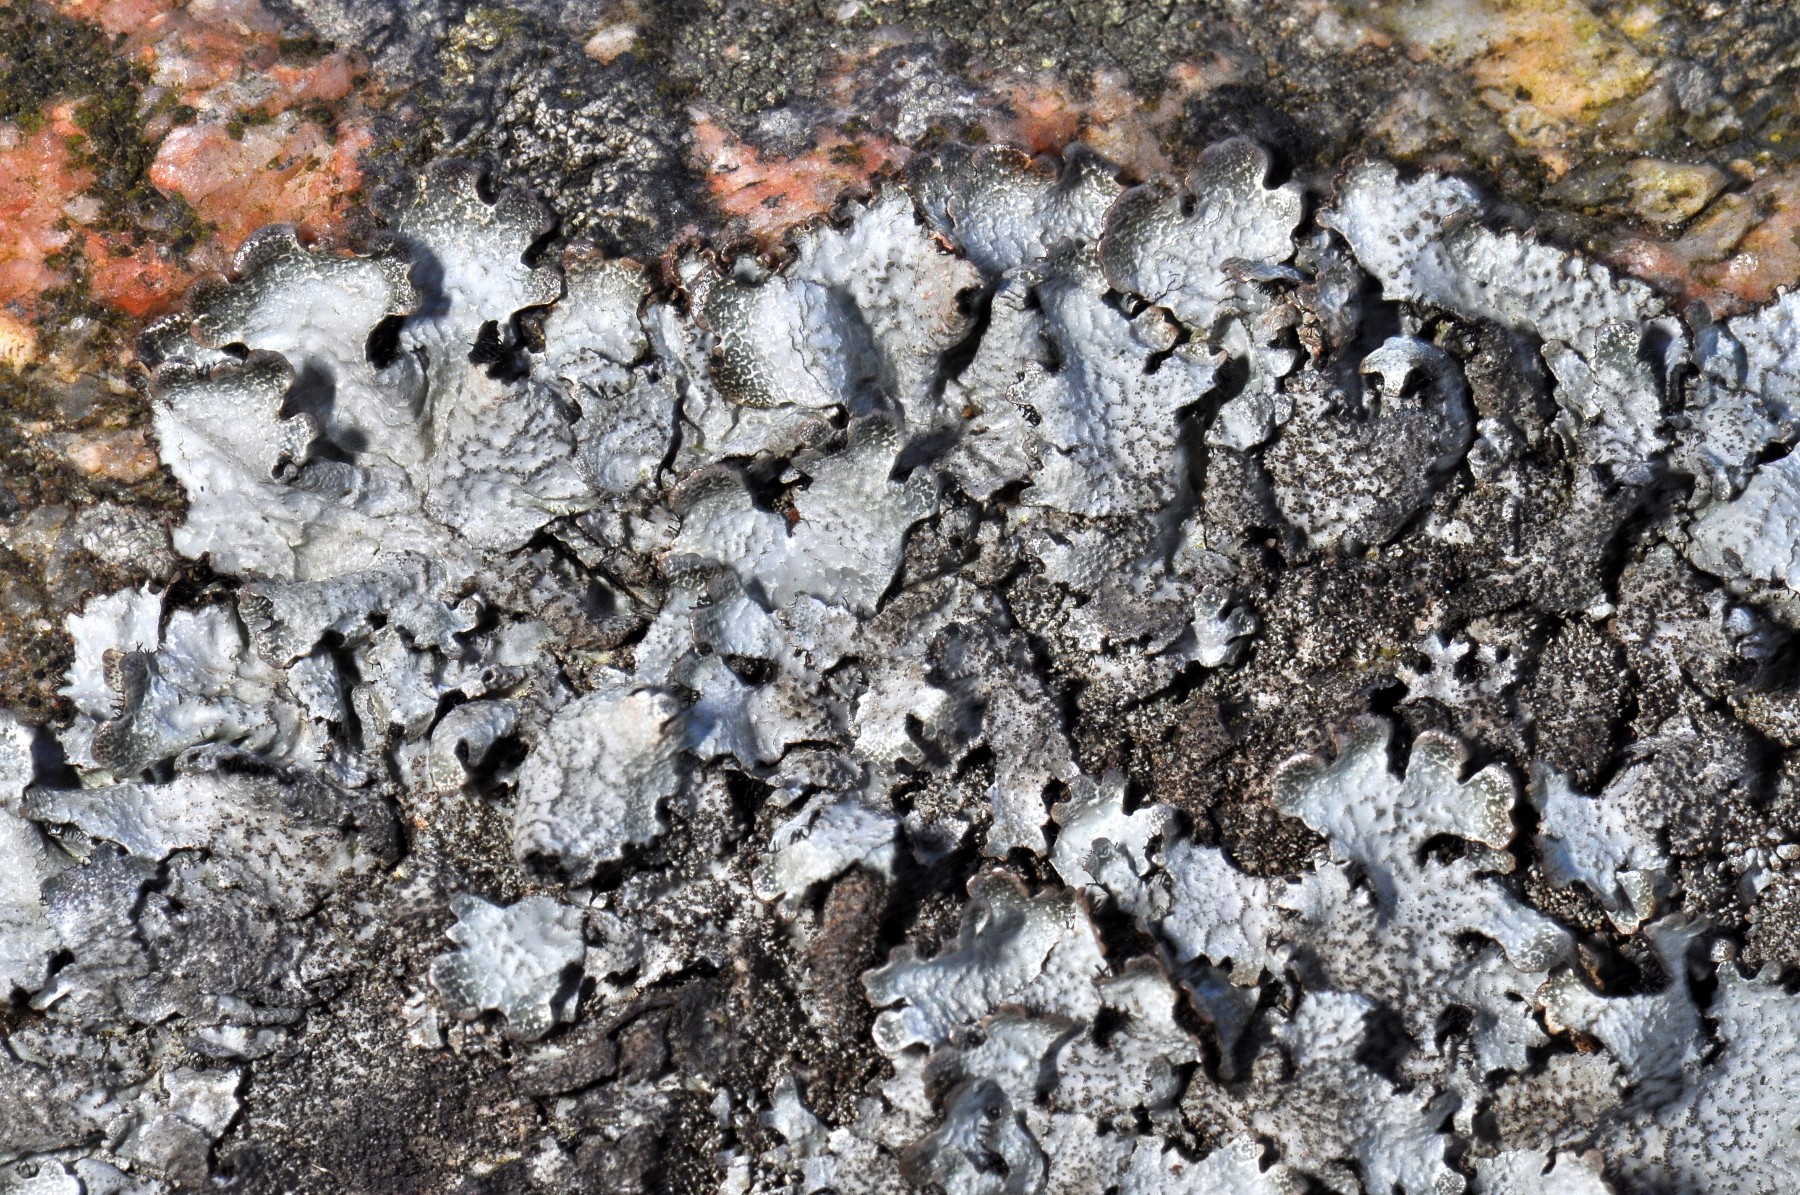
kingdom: Fungi
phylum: Ascomycota
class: Lecanoromycetes
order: Lecanorales
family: Parmeliaceae
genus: Parmelia
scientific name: Parmelia saxatilis
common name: farve-skållav
